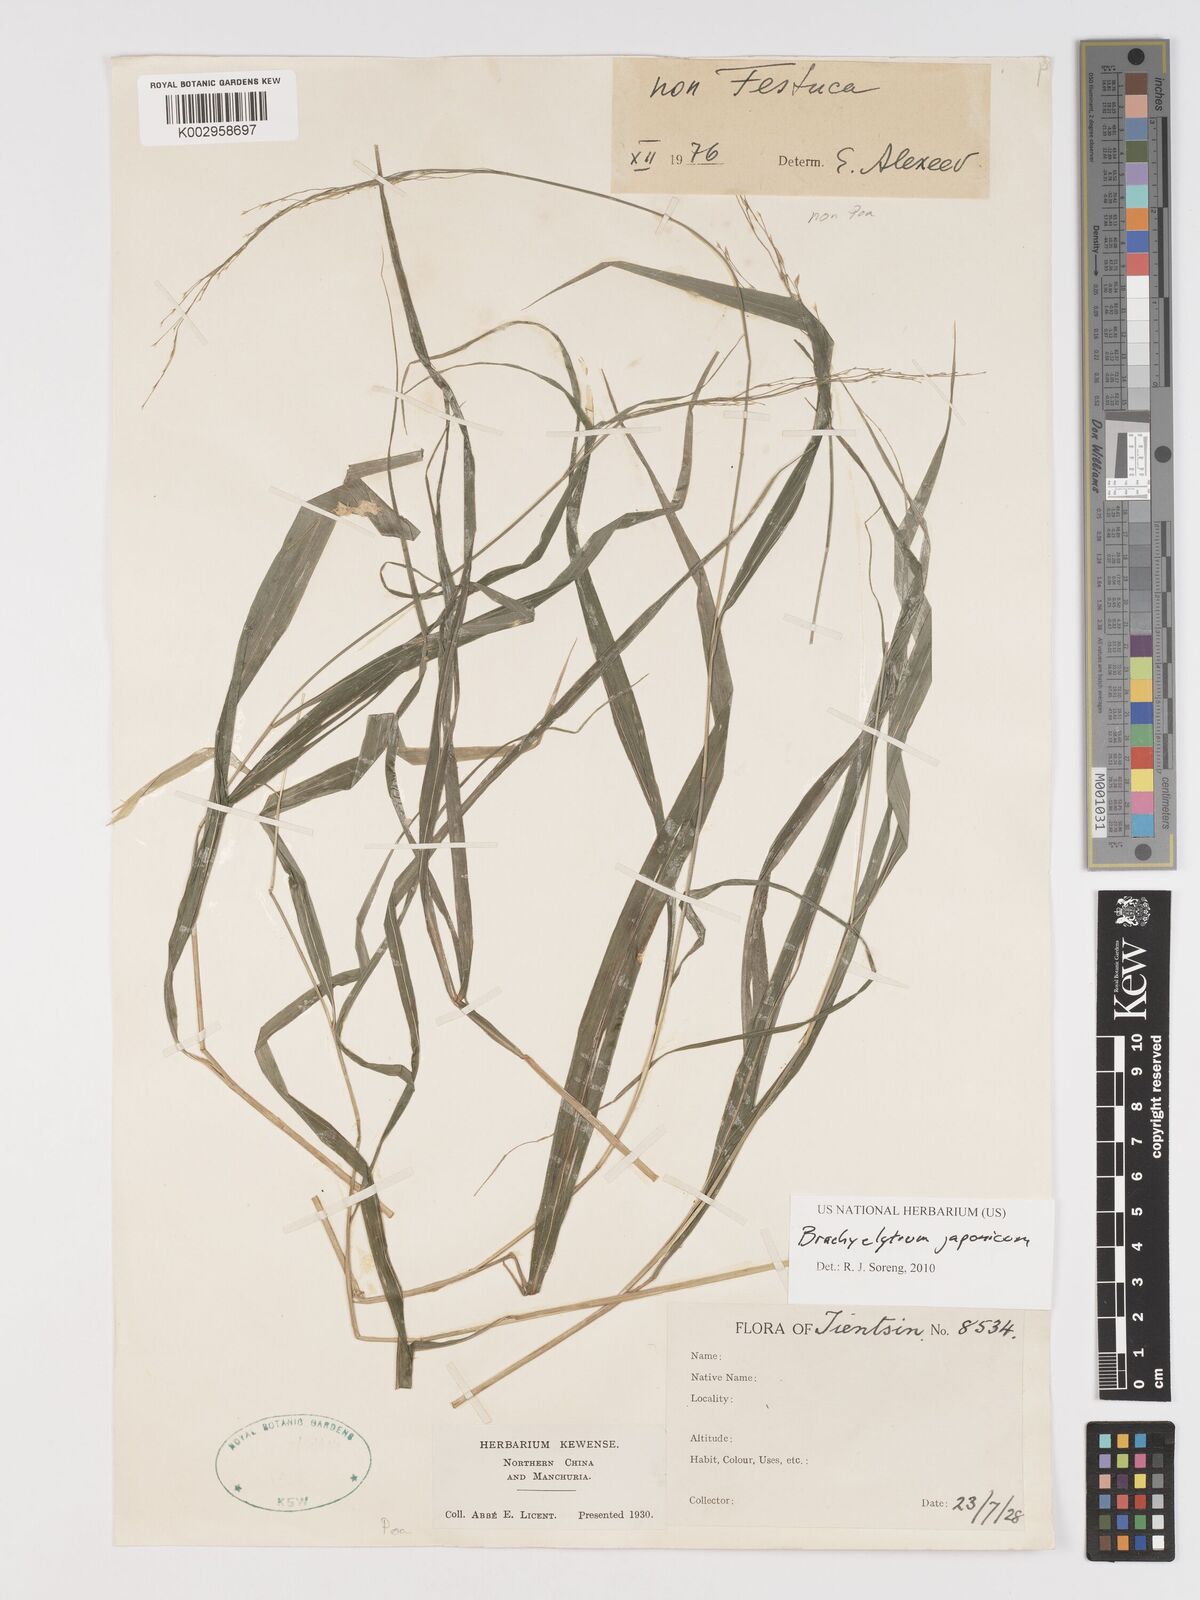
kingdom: Plantae
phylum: Tracheophyta
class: Liliopsida
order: Poales
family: Poaceae
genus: Brachyelytrum
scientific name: Brachyelytrum japonicum
